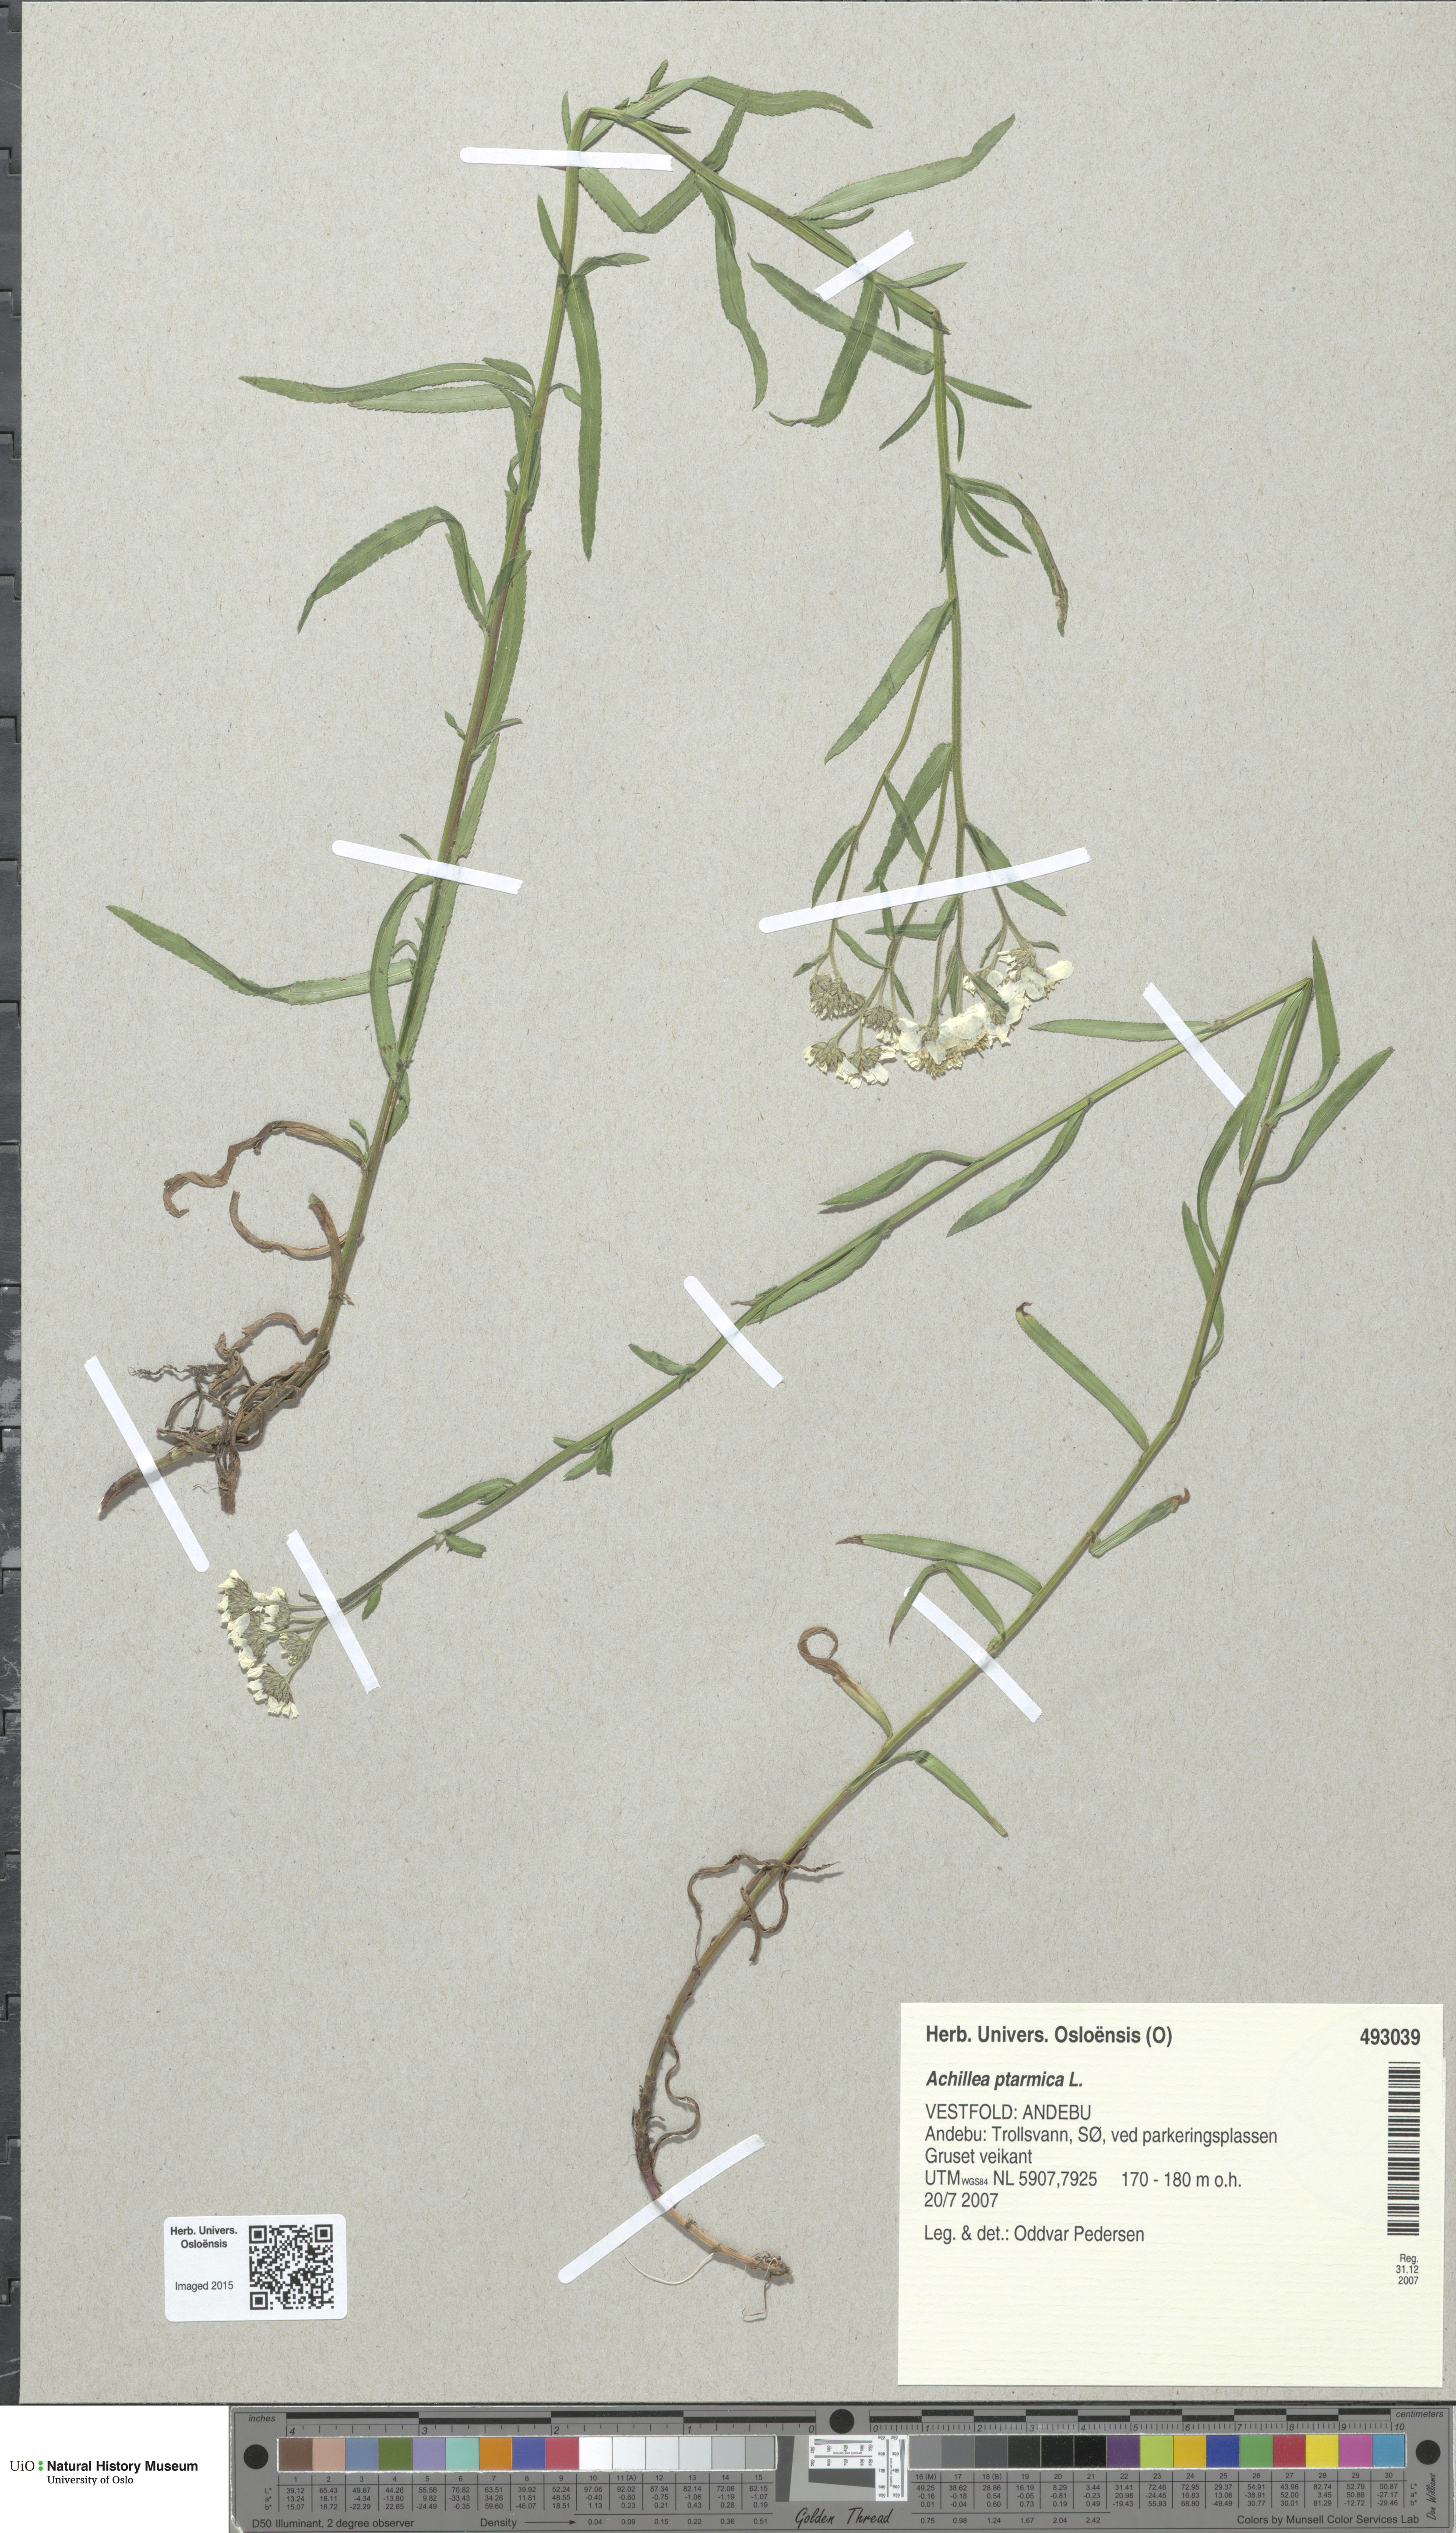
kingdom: Plantae
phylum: Tracheophyta
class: Magnoliopsida
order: Asterales
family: Asteraceae
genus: Achillea
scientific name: Achillea ptarmica
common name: Sneezeweed
